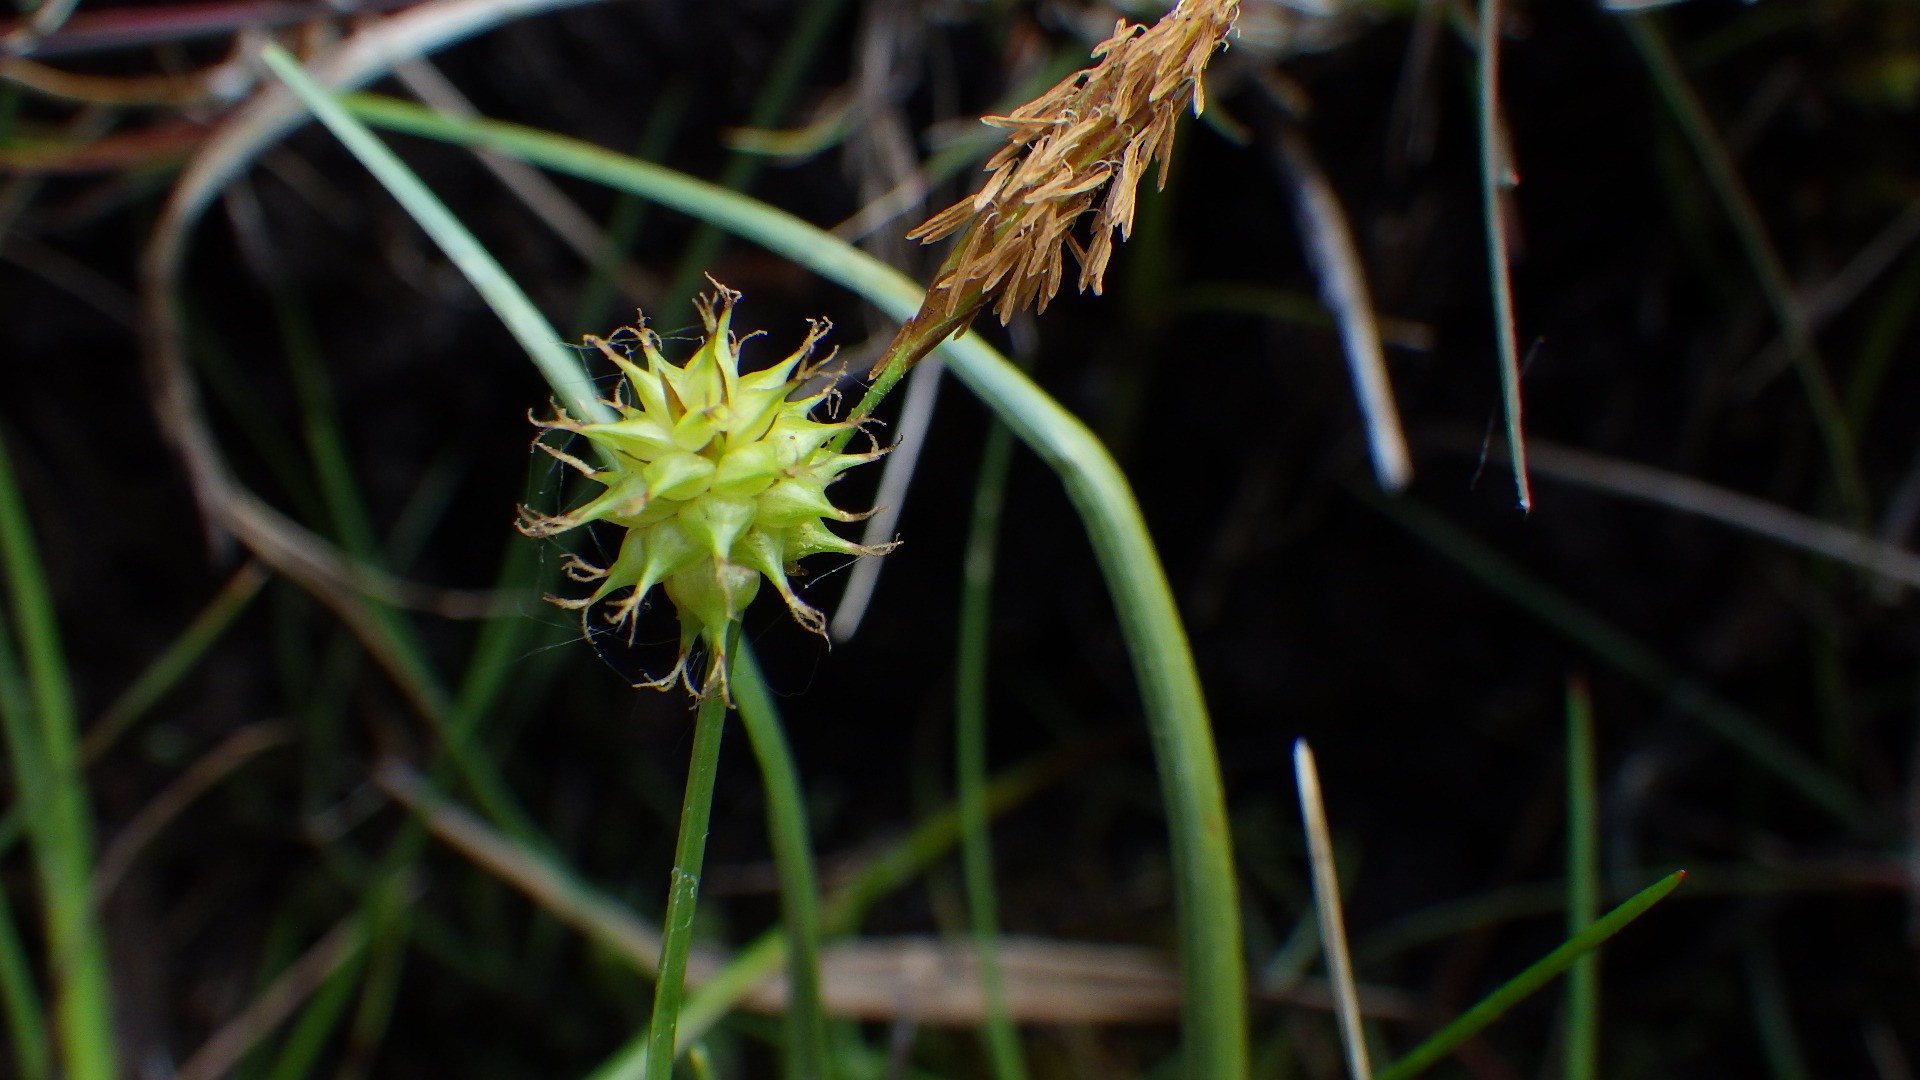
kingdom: Plantae
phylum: Tracheophyta
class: Liliopsida
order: Poales
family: Cyperaceae
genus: Carex
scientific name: Carex lepidocarpa
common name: Krognæb-star
